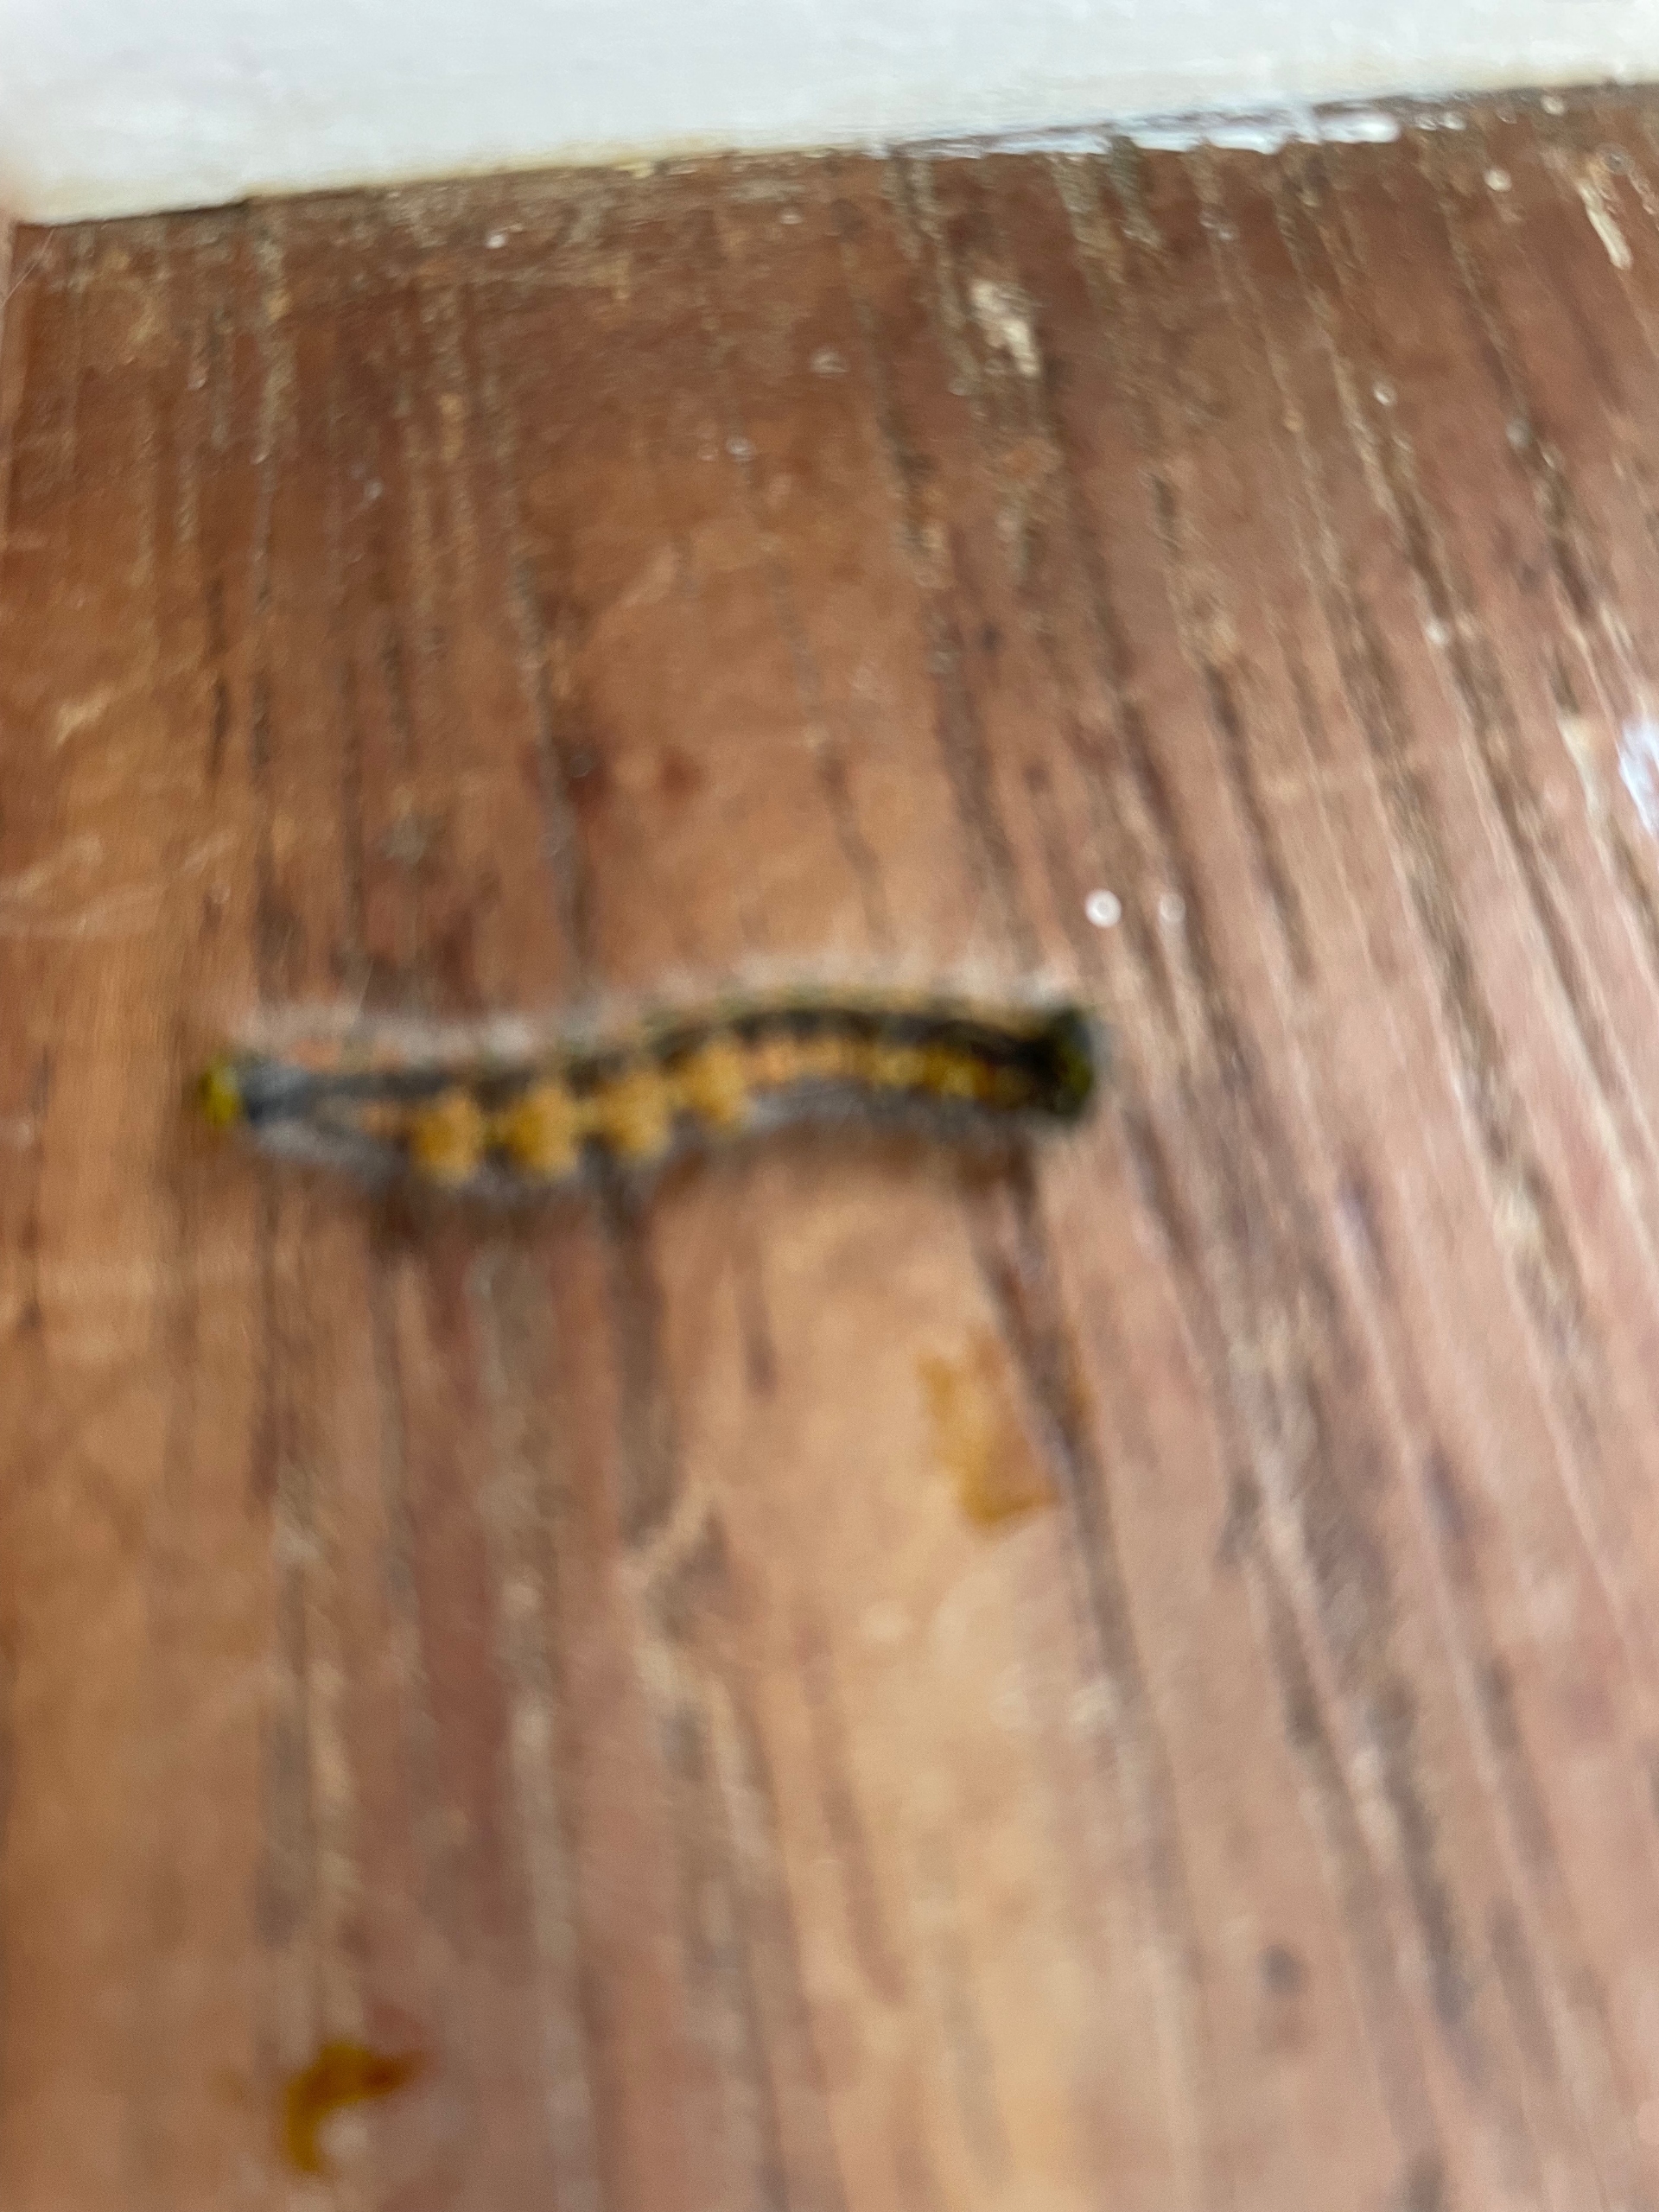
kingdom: Animalia
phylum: Arthropoda
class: Insecta
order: Lepidoptera
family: Notodontidae
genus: Phalera
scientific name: Phalera bucephala
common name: Måneplet
